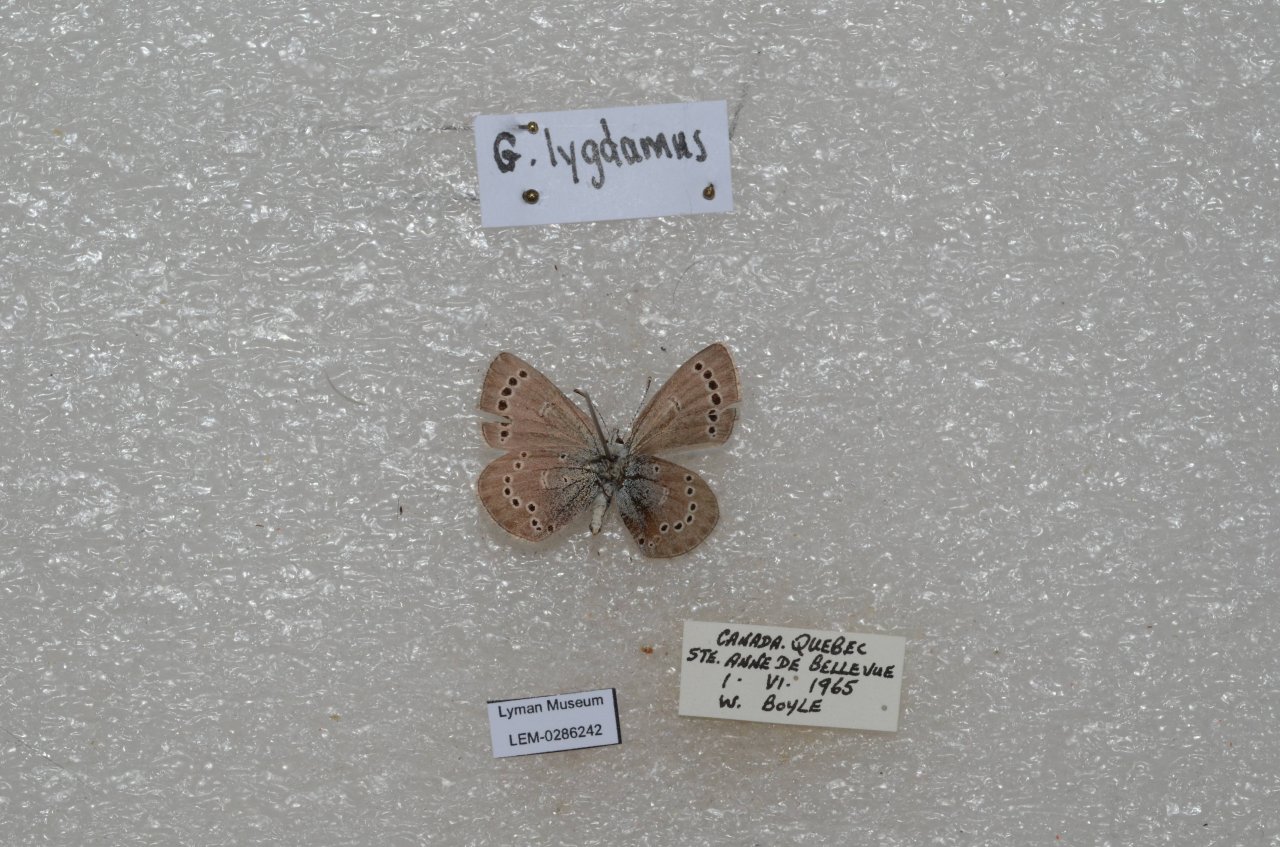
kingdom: Animalia
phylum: Arthropoda
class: Insecta
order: Lepidoptera
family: Lycaenidae
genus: Glaucopsyche
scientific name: Glaucopsyche lygdamus
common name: Silvery Blue
